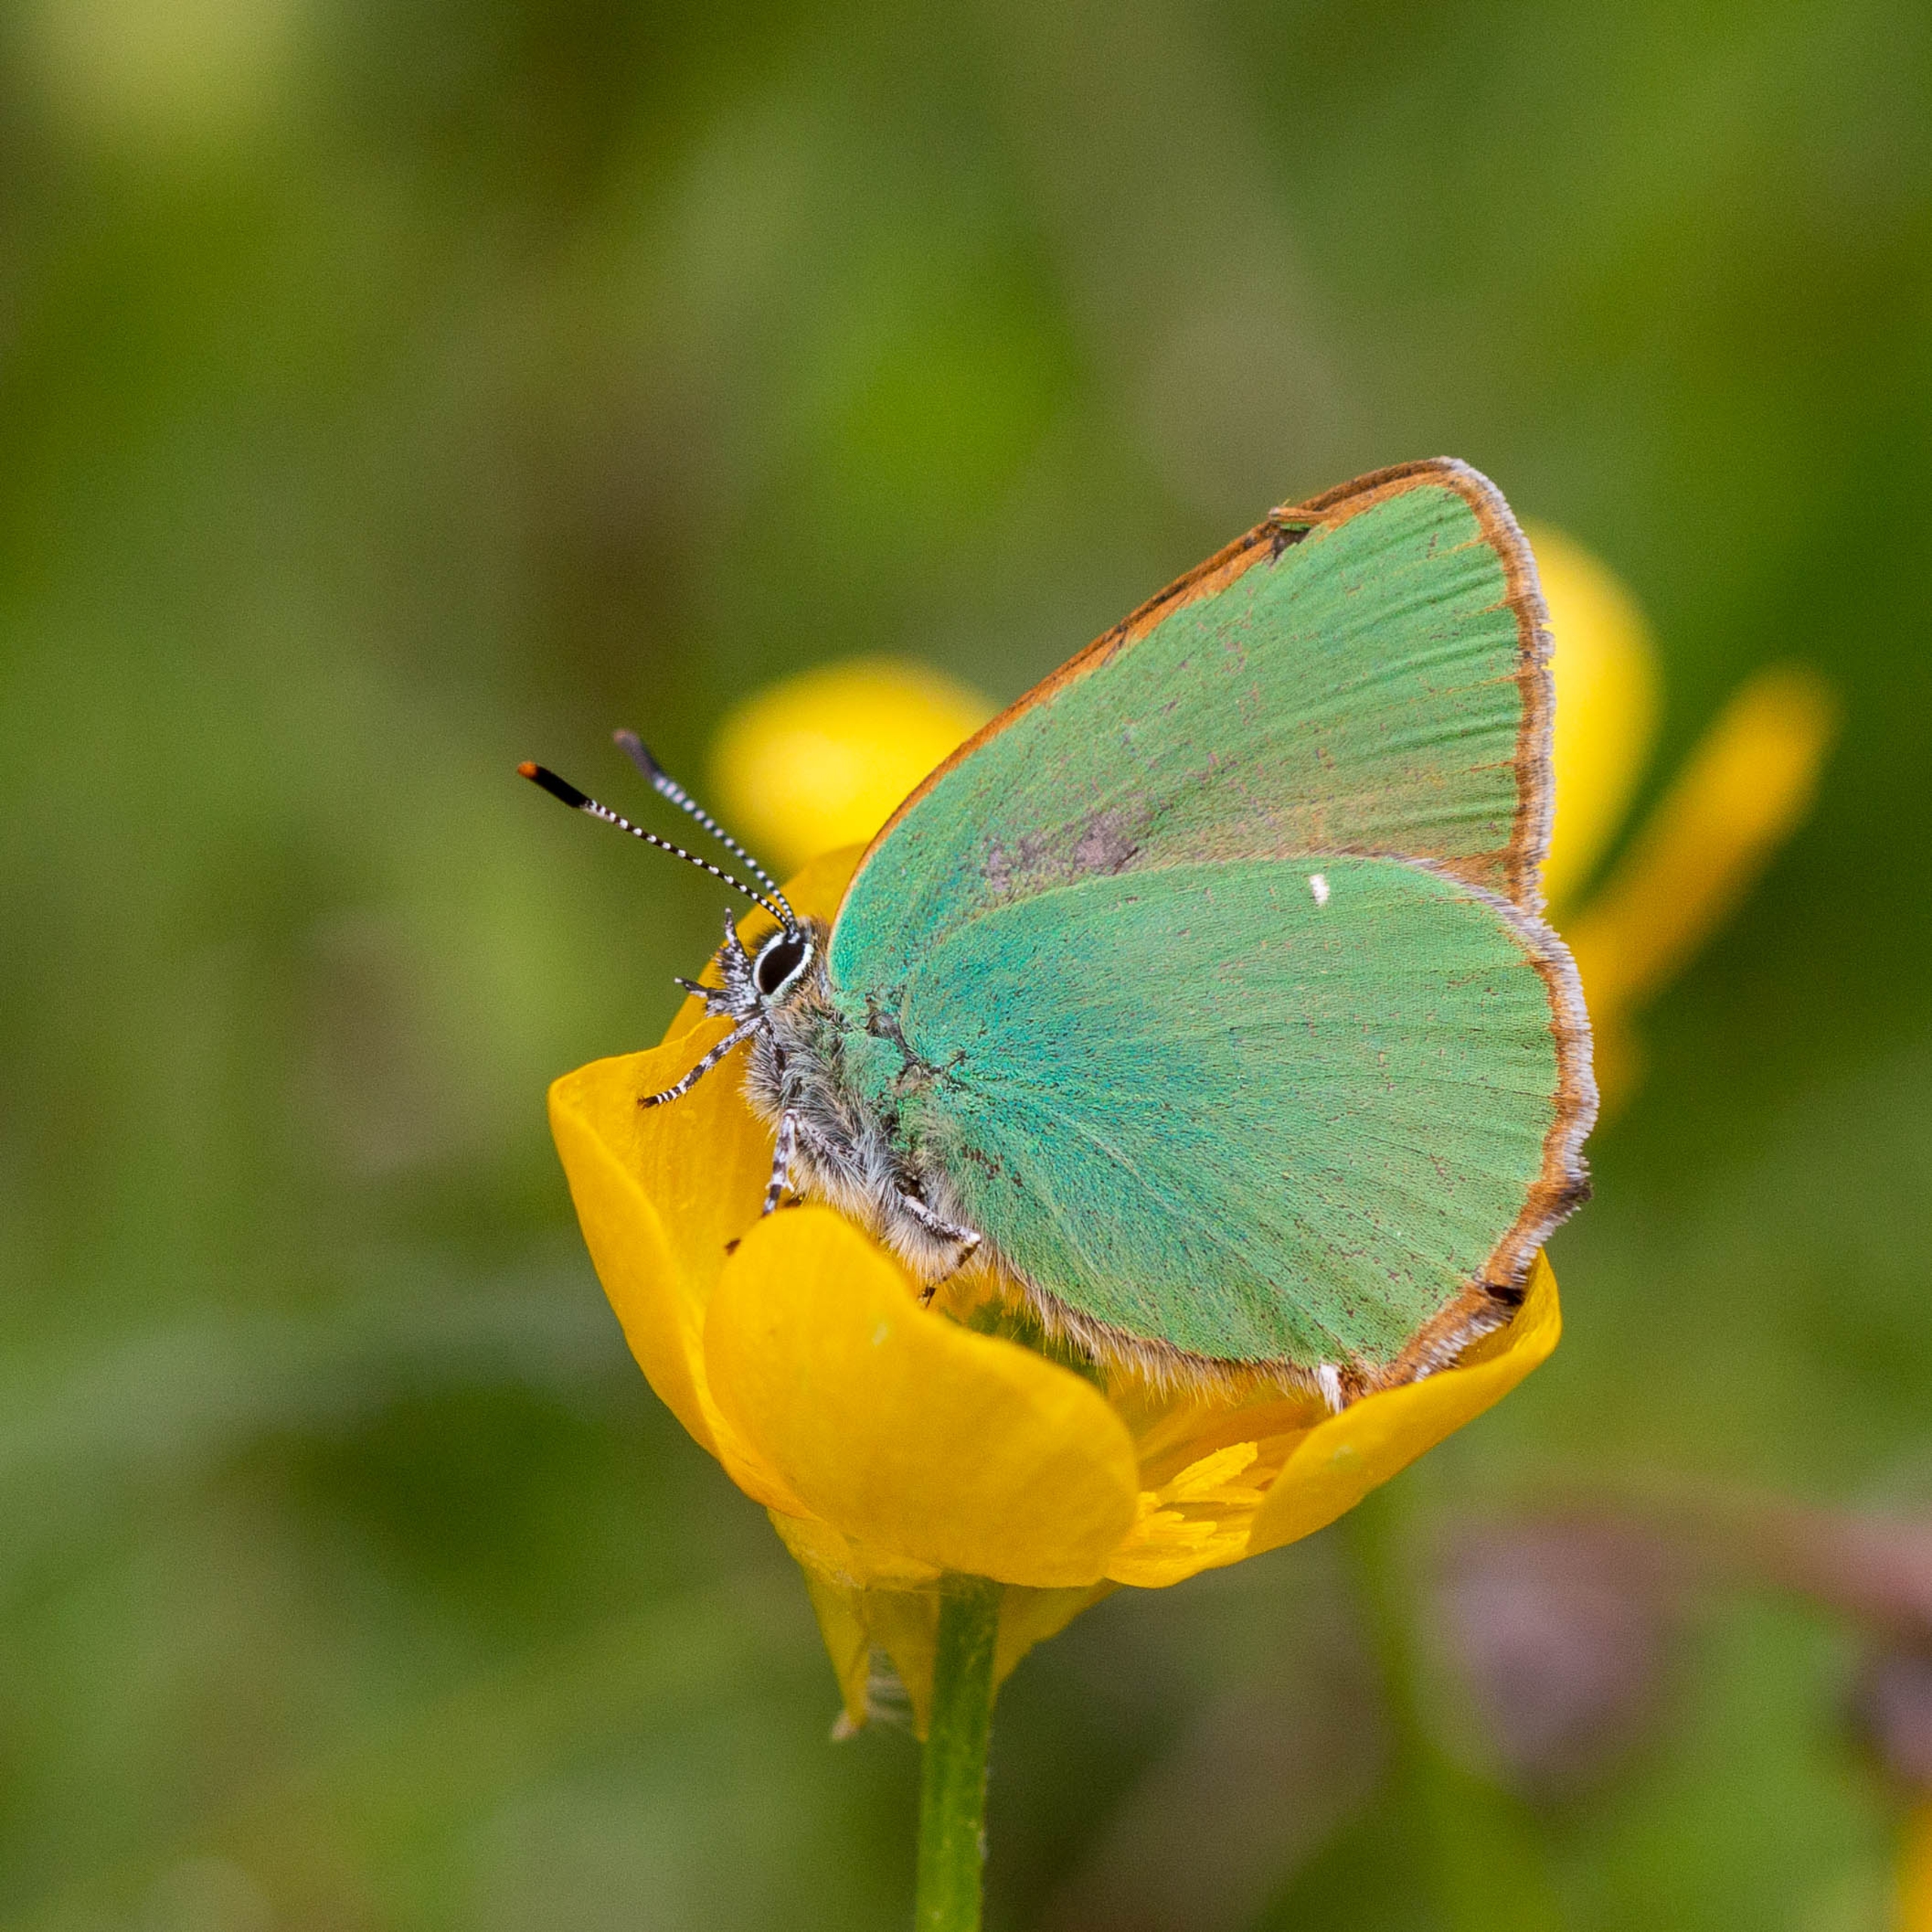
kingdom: Animalia
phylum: Arthropoda
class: Insecta
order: Lepidoptera
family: Lycaenidae
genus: Callophrys
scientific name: Callophrys rubi
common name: Grøn busksommerfugl
